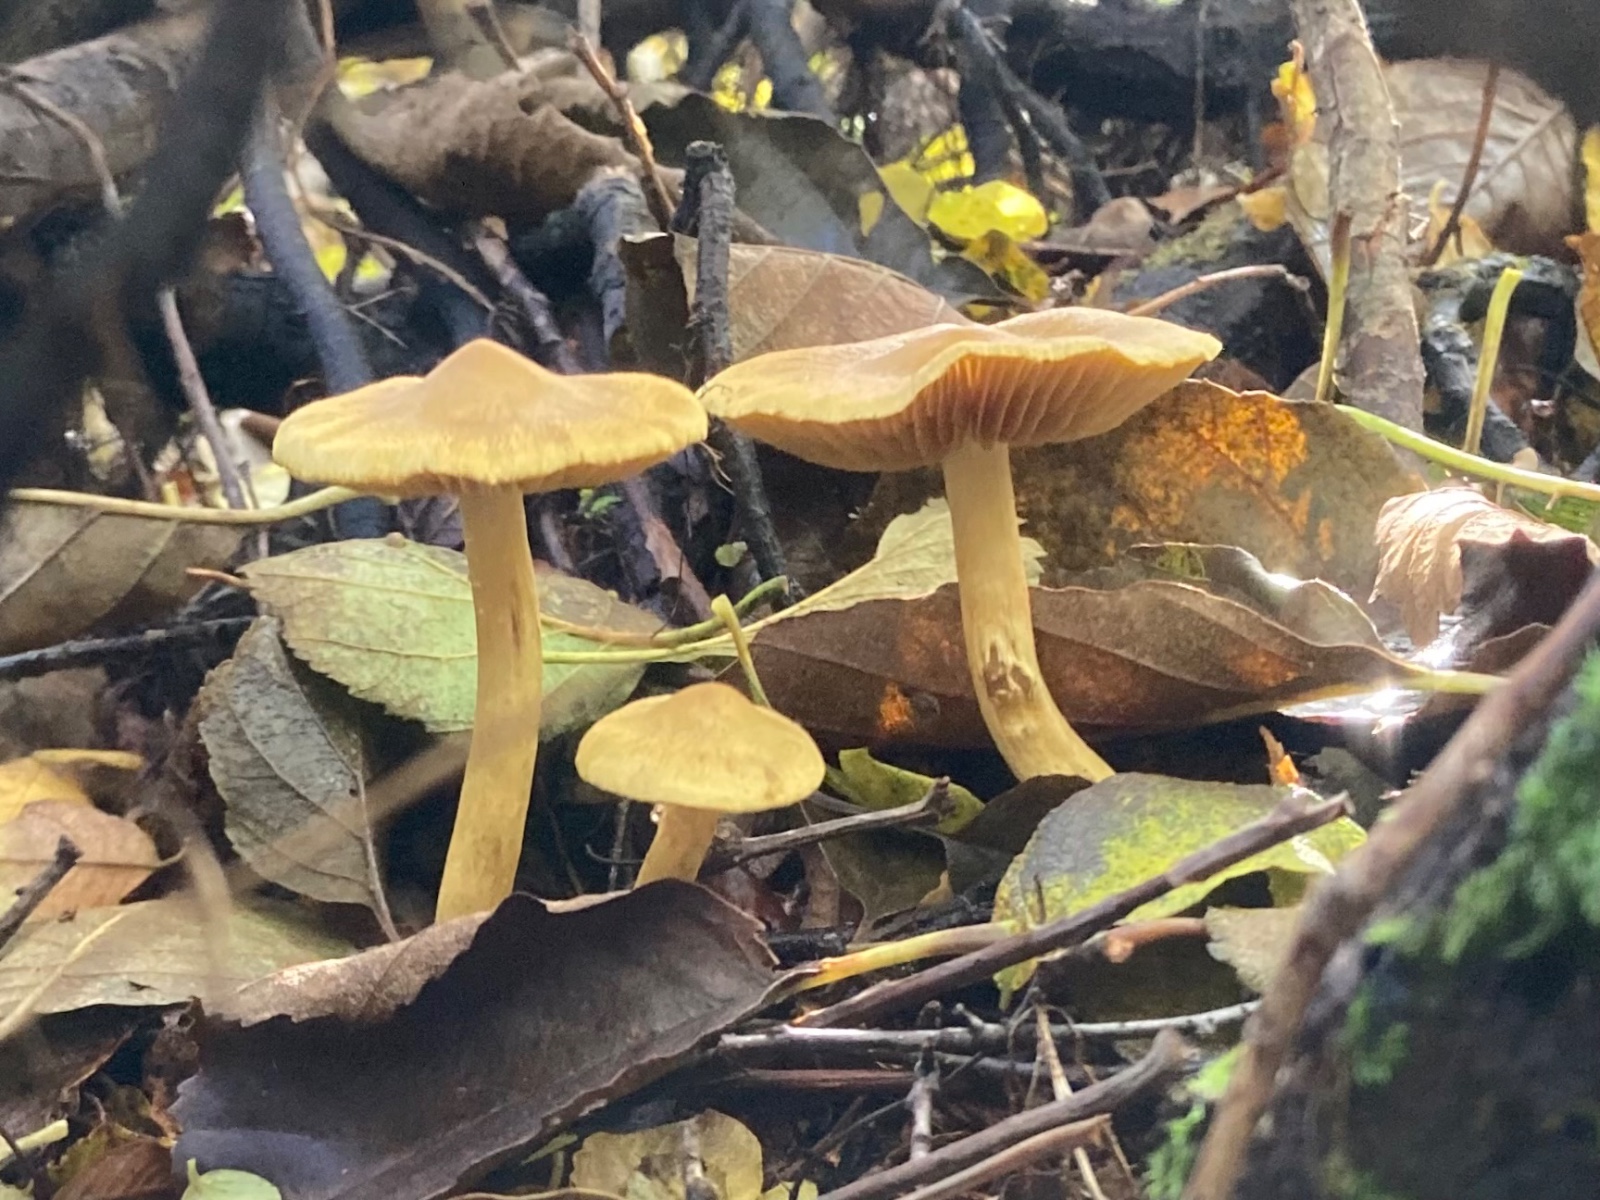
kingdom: Fungi
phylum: Basidiomycota
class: Agaricomycetes
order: Agaricales
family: Cortinariaceae
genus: Cortinarius
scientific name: Cortinarius uliginosus
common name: Marsh webcap
